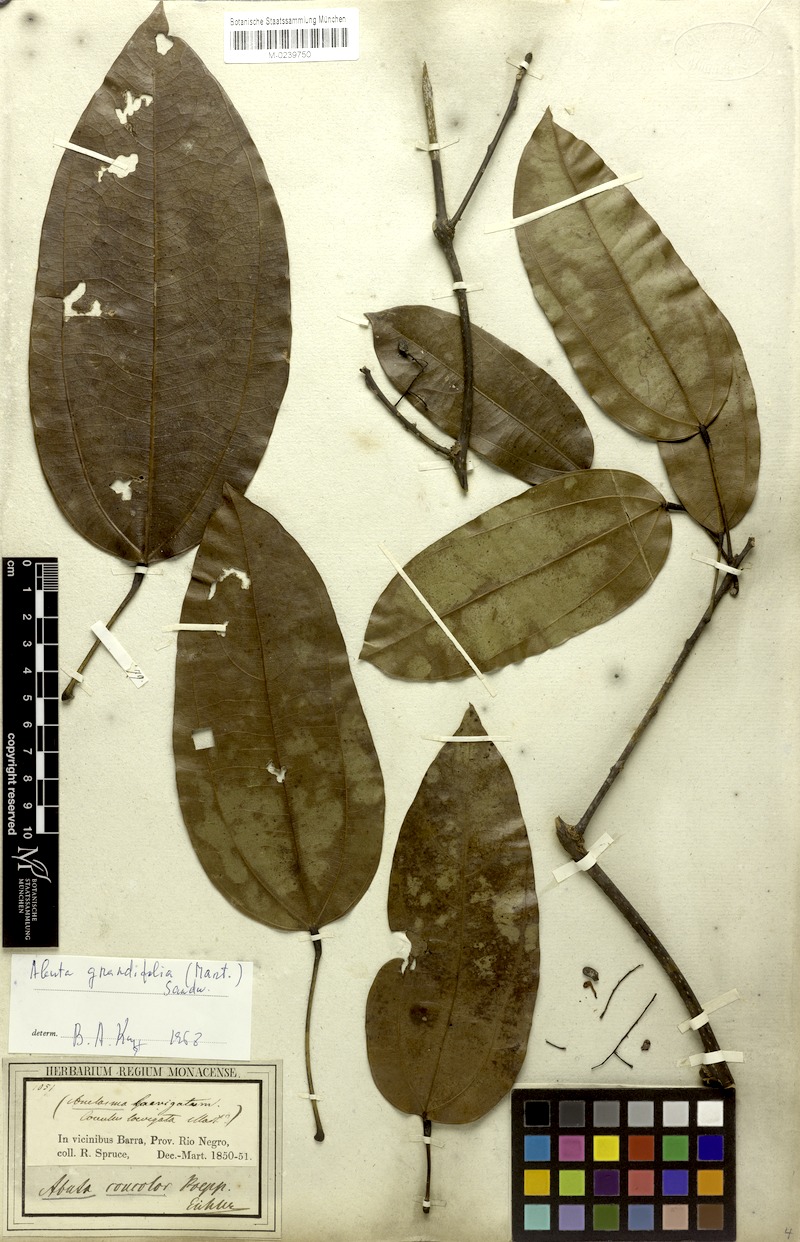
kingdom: Plantae
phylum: Tracheophyta
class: Magnoliopsida
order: Ranunculales
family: Menispermaceae
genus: Abuta
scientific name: Abuta grandifolia
